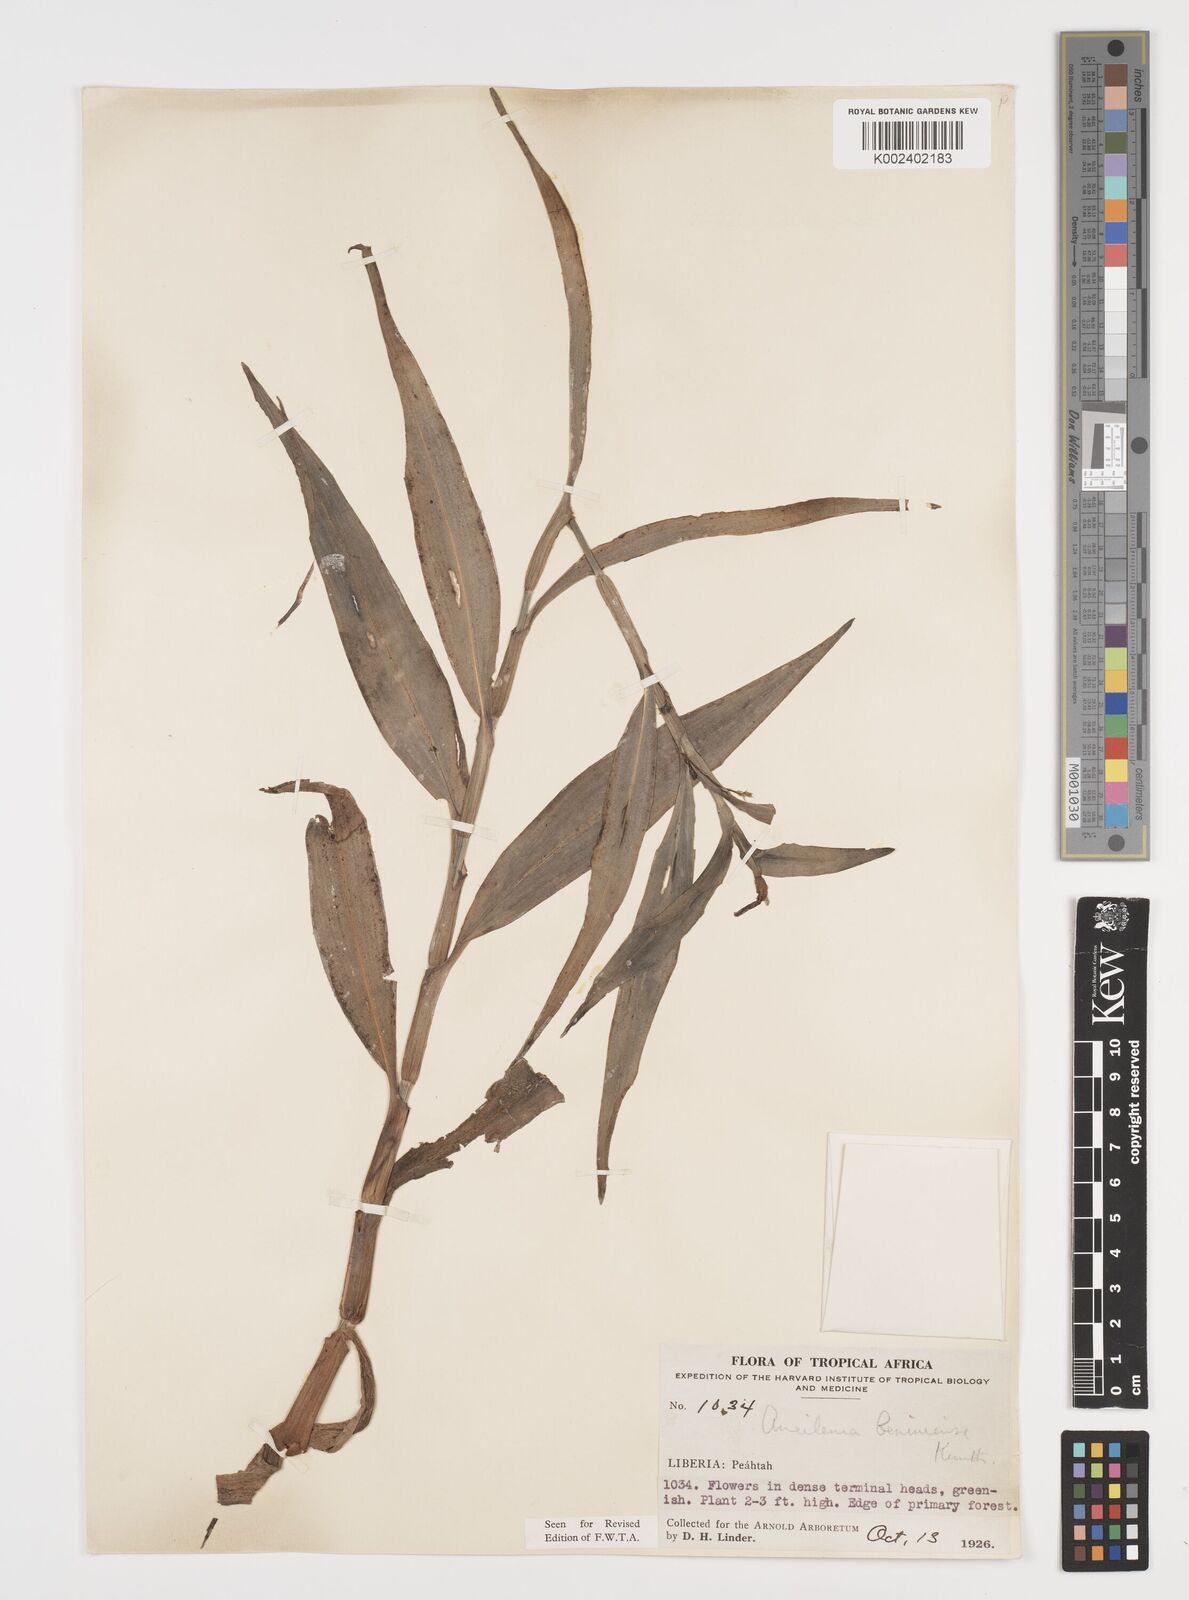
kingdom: Plantae
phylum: Tracheophyta
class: Liliopsida
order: Commelinales
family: Commelinaceae
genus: Aneilema
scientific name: Aneilema beniniense
